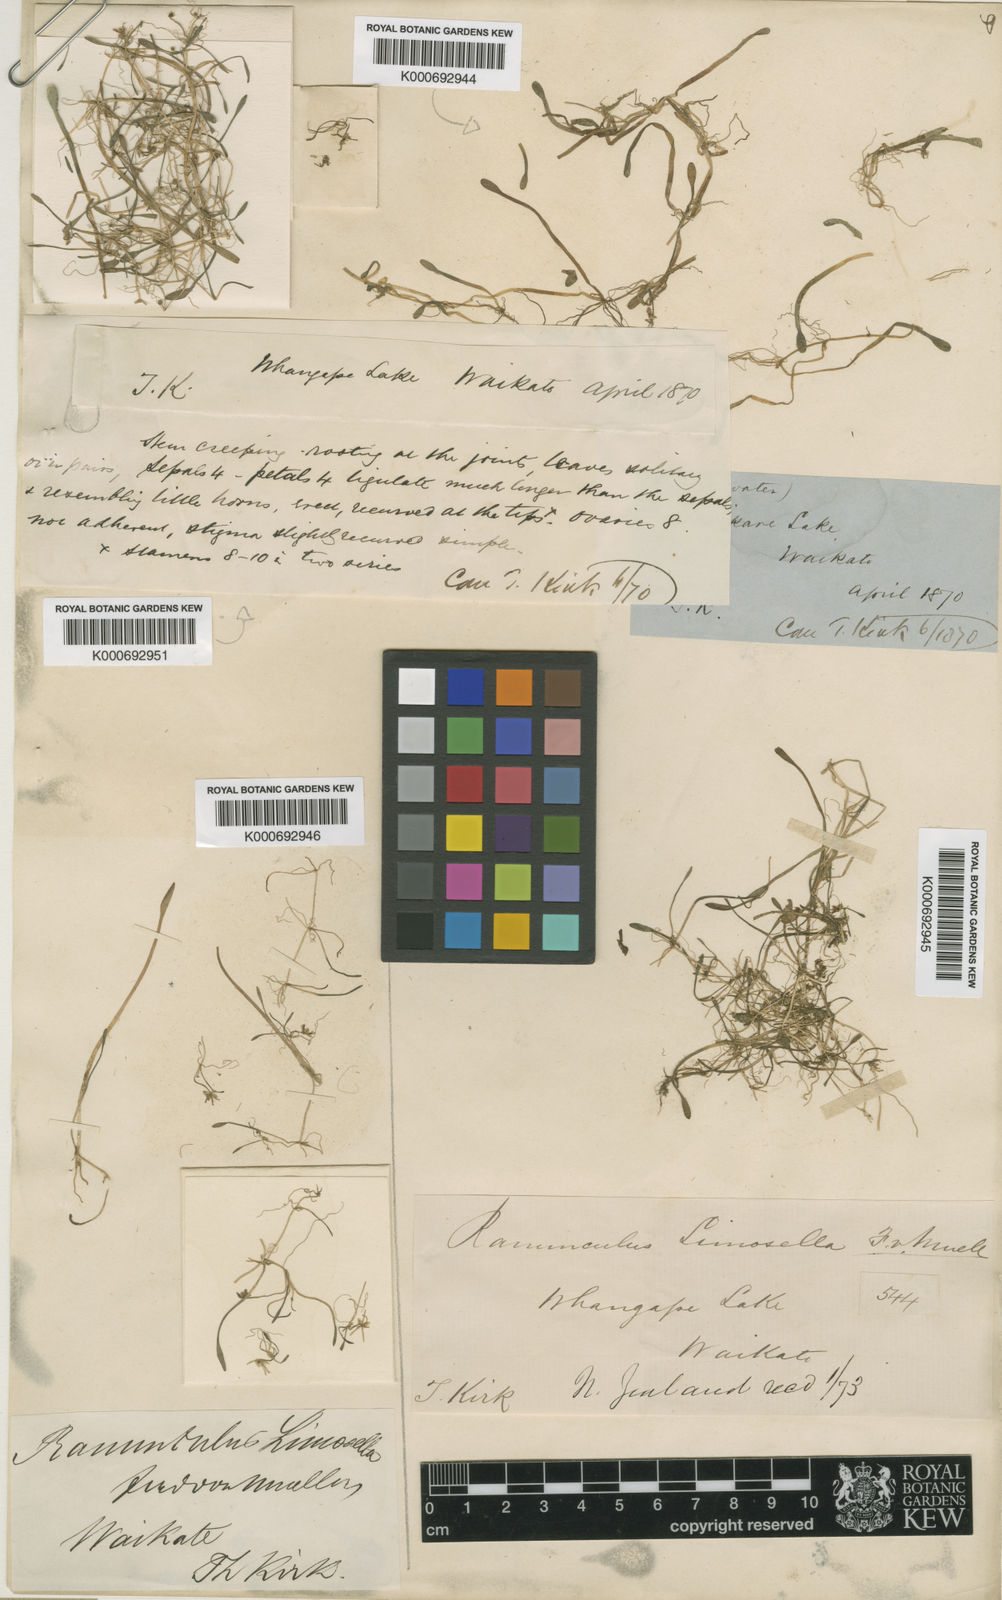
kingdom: Plantae
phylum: Tracheophyta
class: Magnoliopsida
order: Ranunculales
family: Ranunculaceae
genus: Ranunculus
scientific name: Ranunculus limosella
